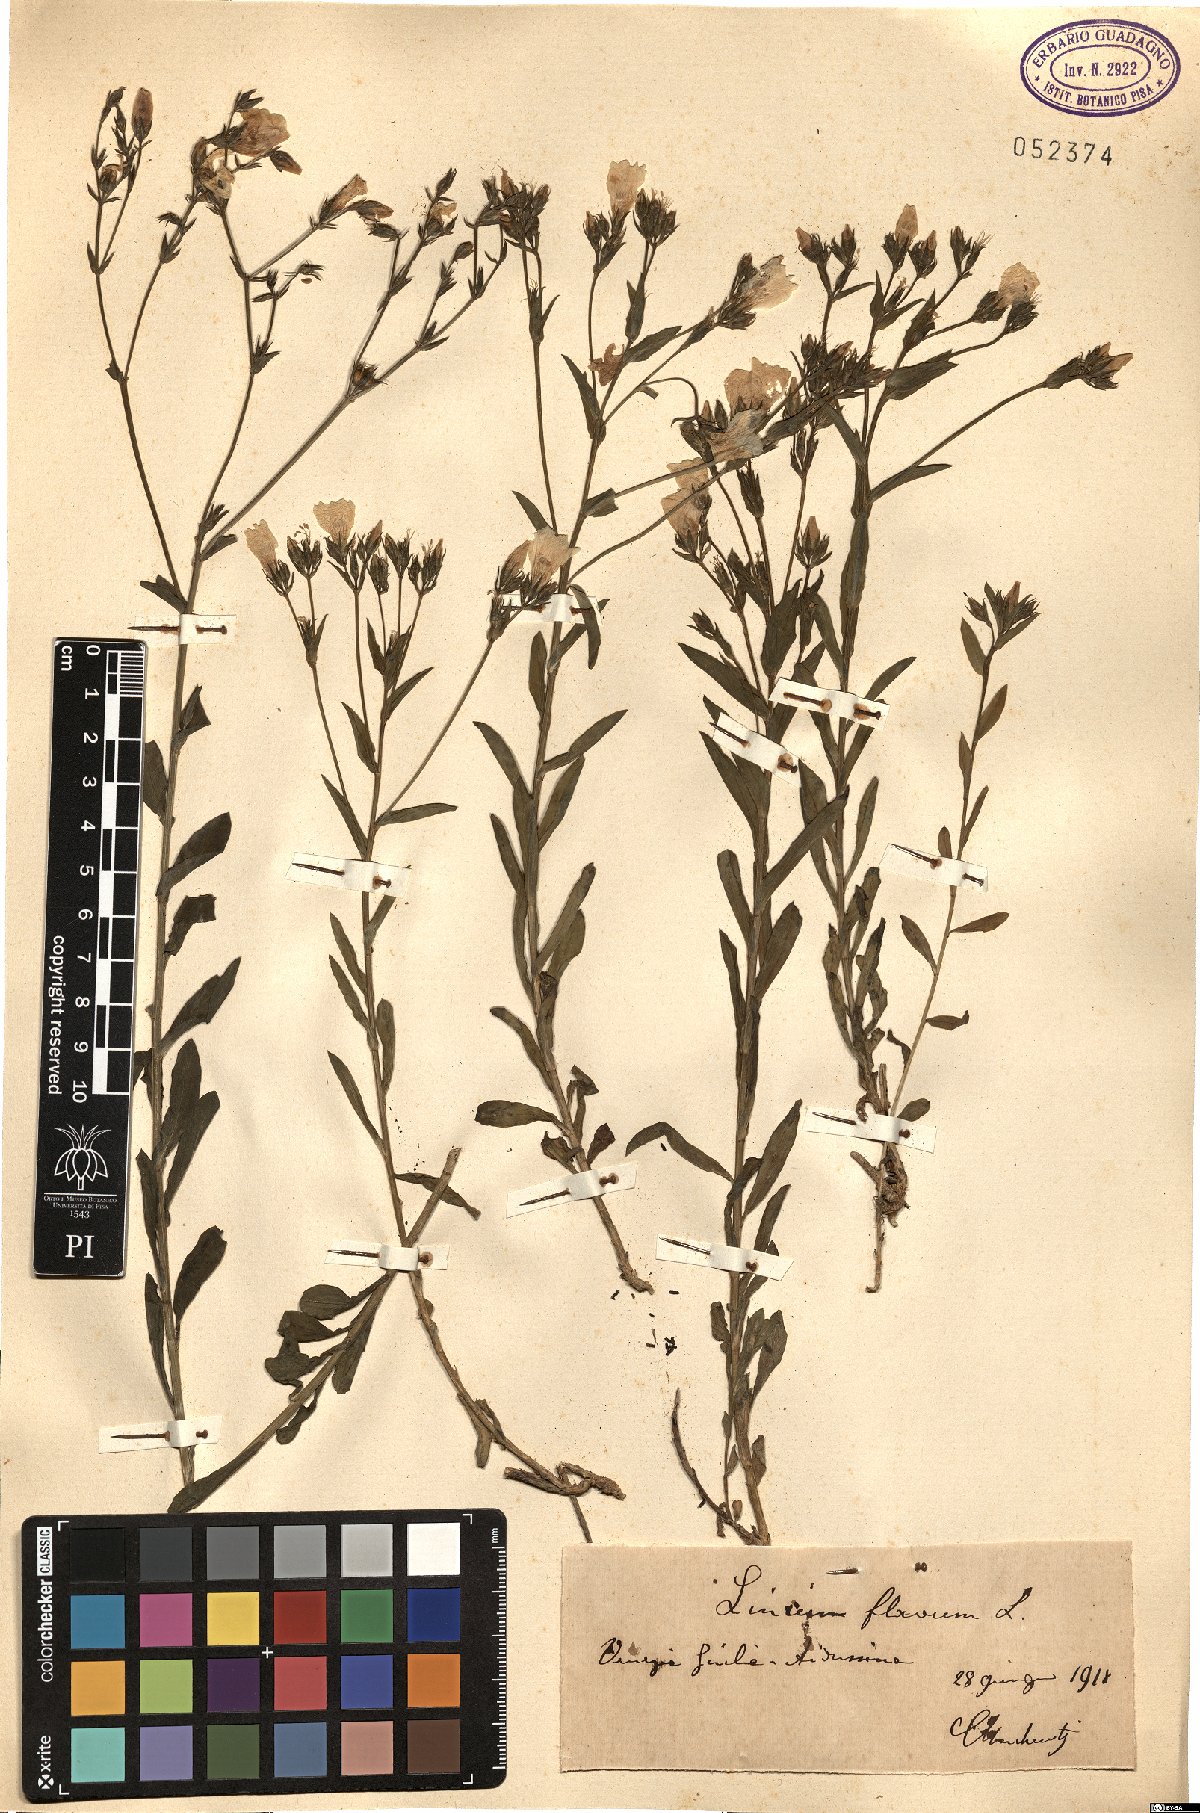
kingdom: Plantae
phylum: Tracheophyta
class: Magnoliopsida
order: Malpighiales
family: Linaceae
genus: Linum
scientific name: Linum flavum
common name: Yellow flax
